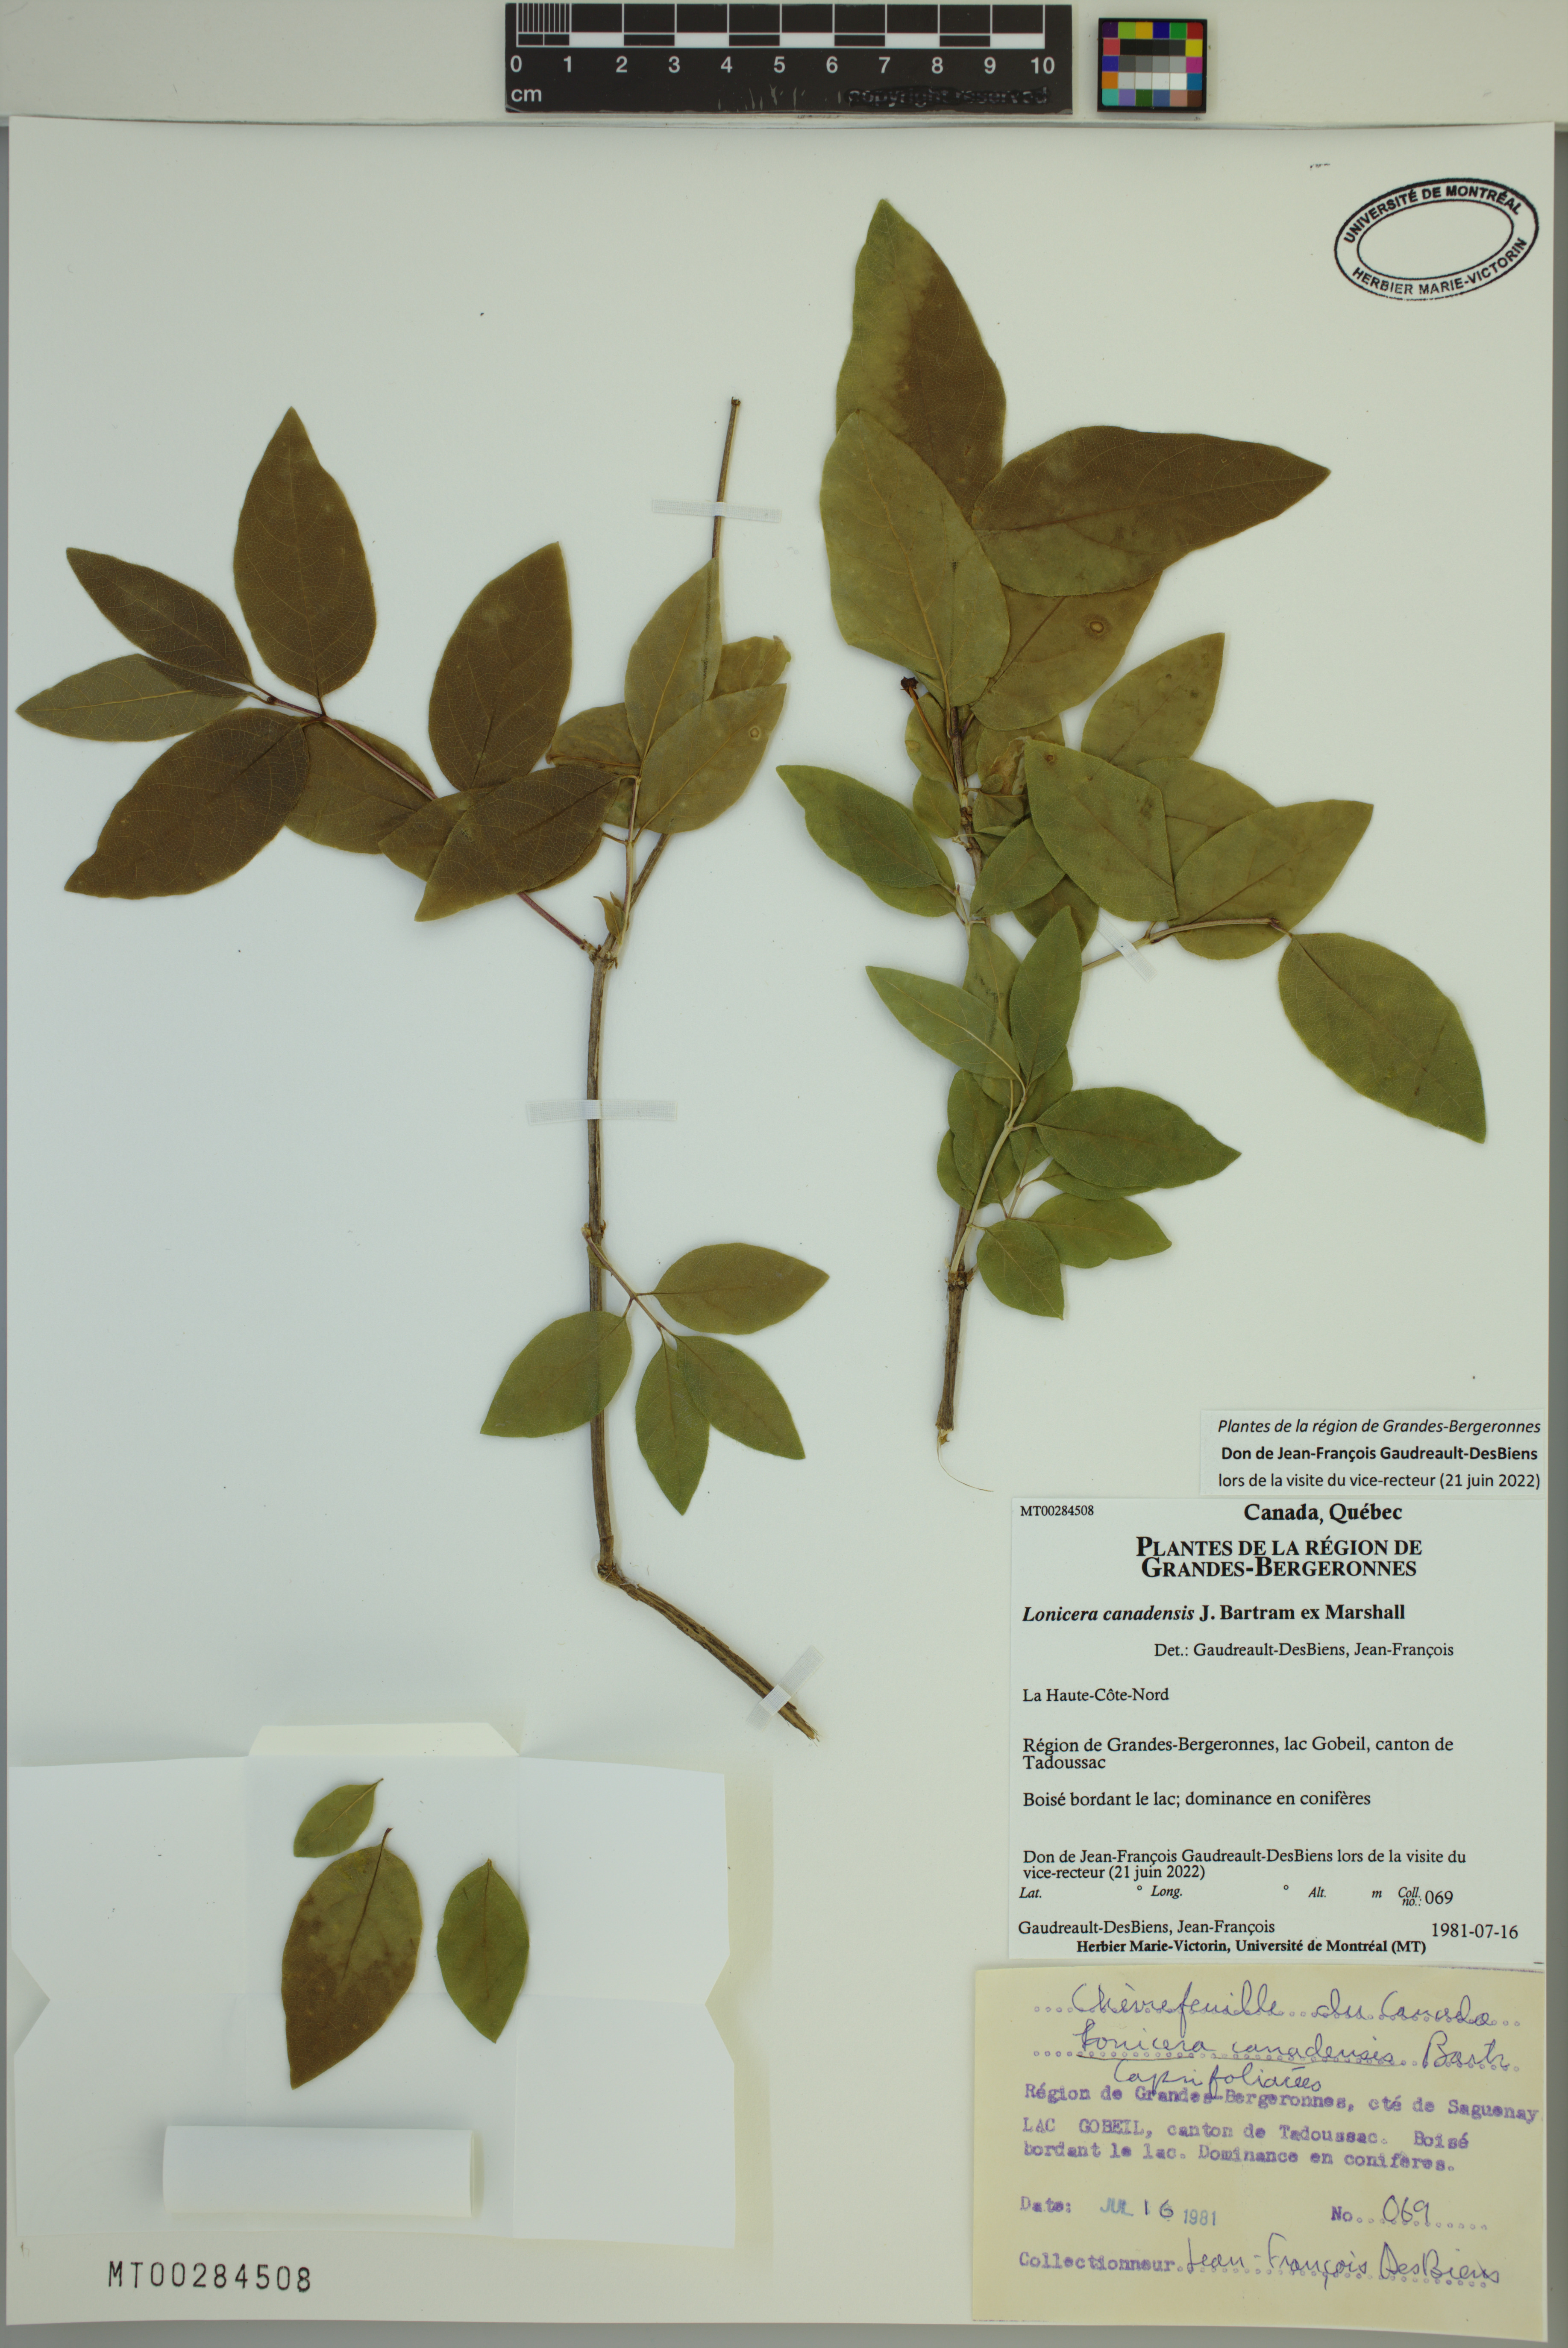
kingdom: Plantae
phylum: Tracheophyta
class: Magnoliopsida
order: Dipsacales
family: Caprifoliaceae
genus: Lonicera
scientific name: Lonicera canadensis
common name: American fly-honeysuckle
